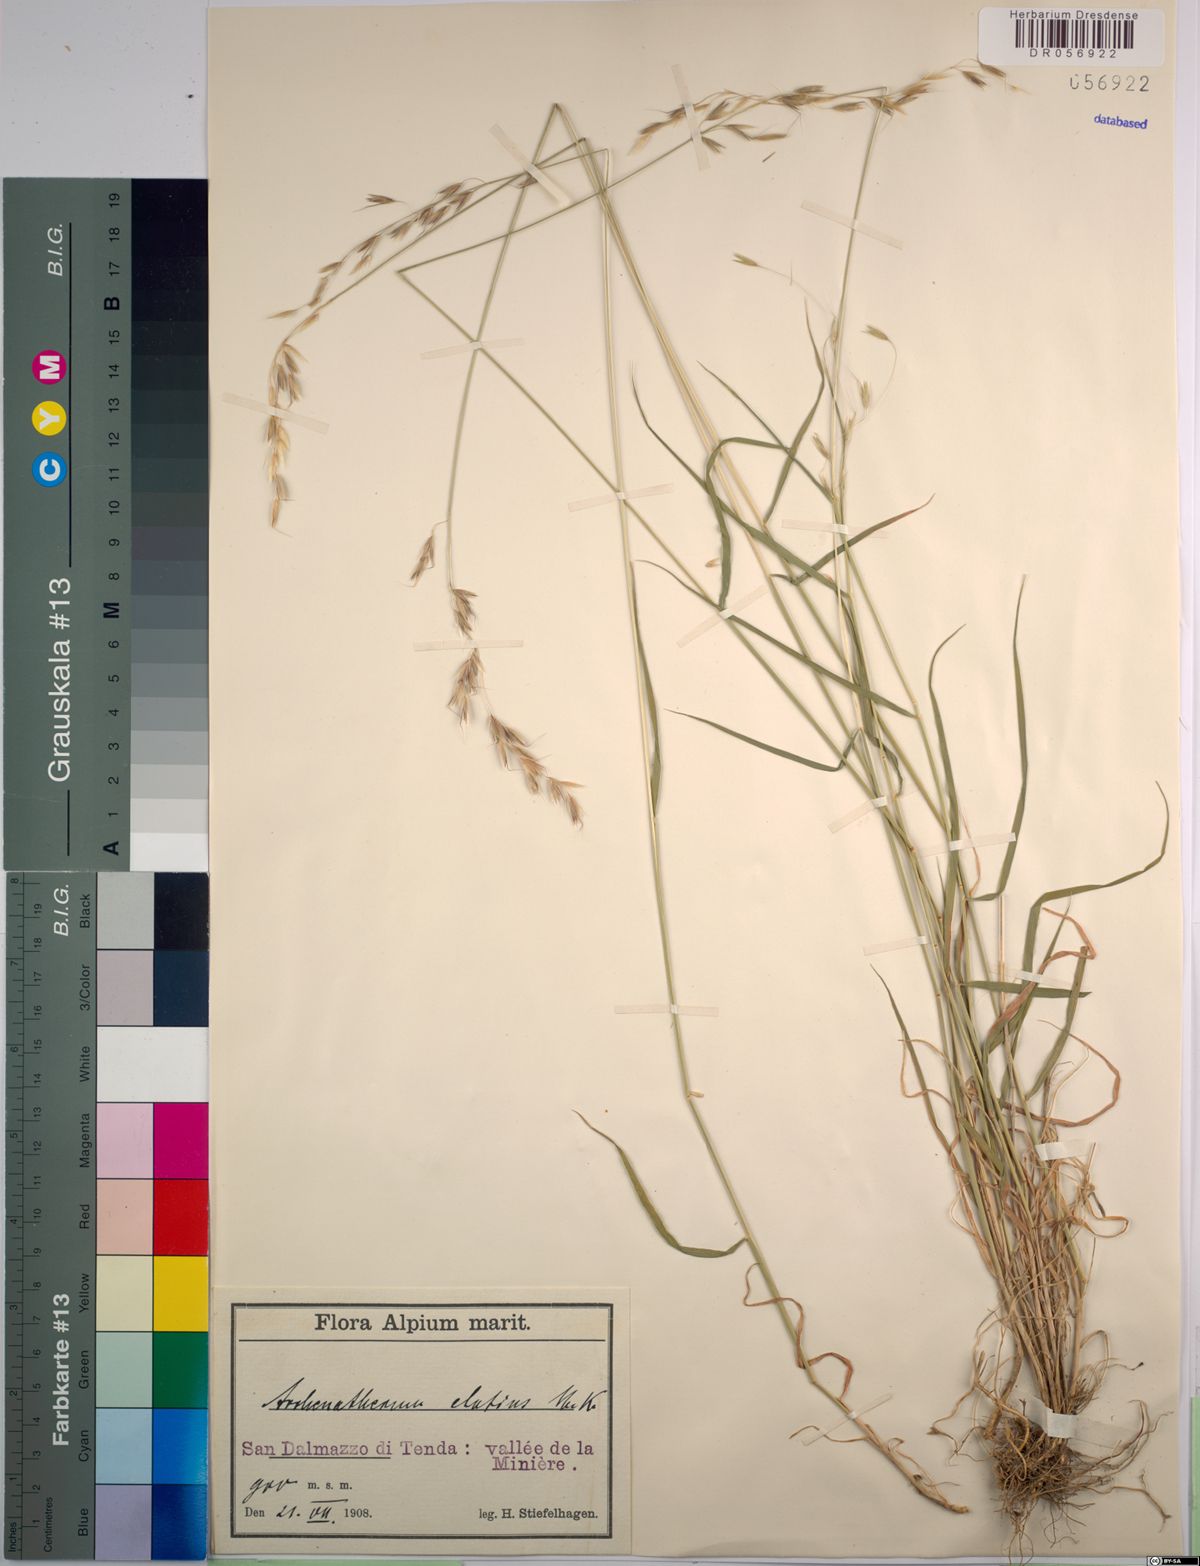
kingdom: Plantae
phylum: Tracheophyta
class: Liliopsida
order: Poales
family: Poaceae
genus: Arrhenatherum
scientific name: Arrhenatherum elatius
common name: Tall oatgrass
